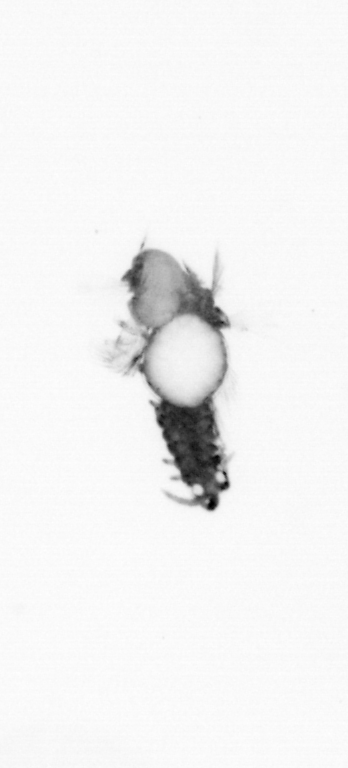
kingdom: Animalia
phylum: Annelida
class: Polychaeta
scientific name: Polychaeta
